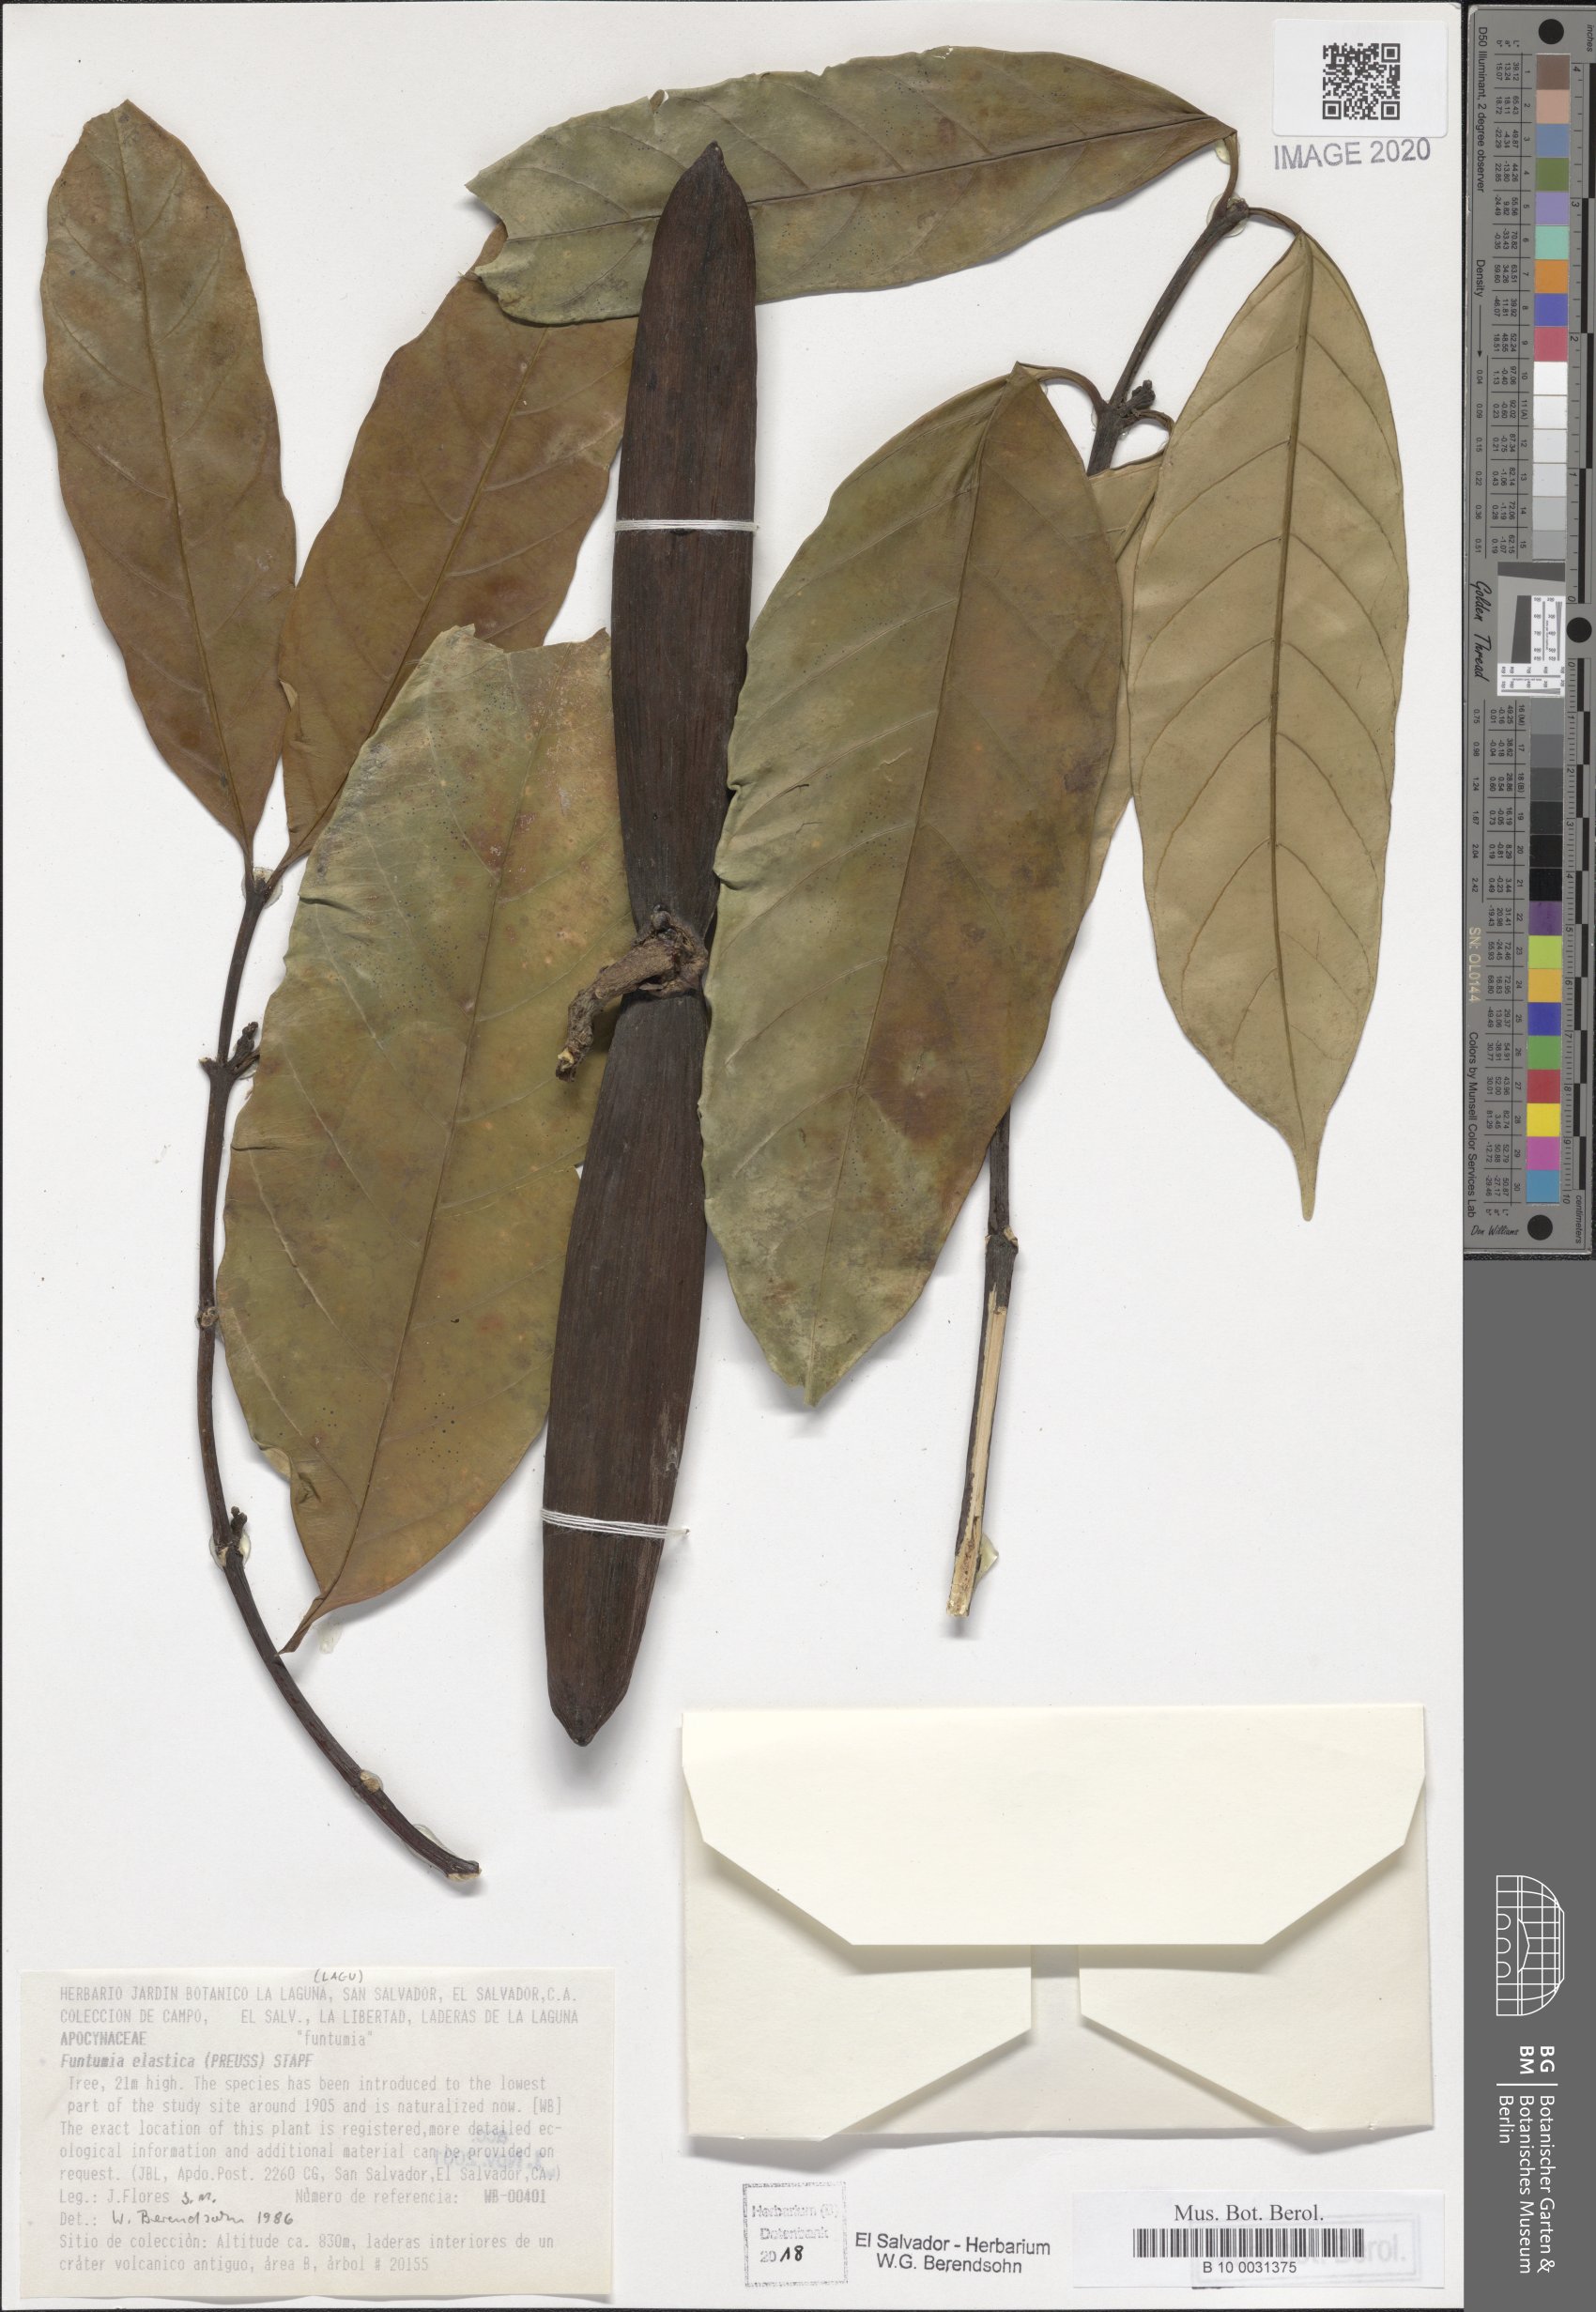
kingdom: Plantae
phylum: Tracheophyta
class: Magnoliopsida
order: Gentianales
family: Apocynaceae
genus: Funtumia
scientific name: Funtumia elastica
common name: Silkrubber
